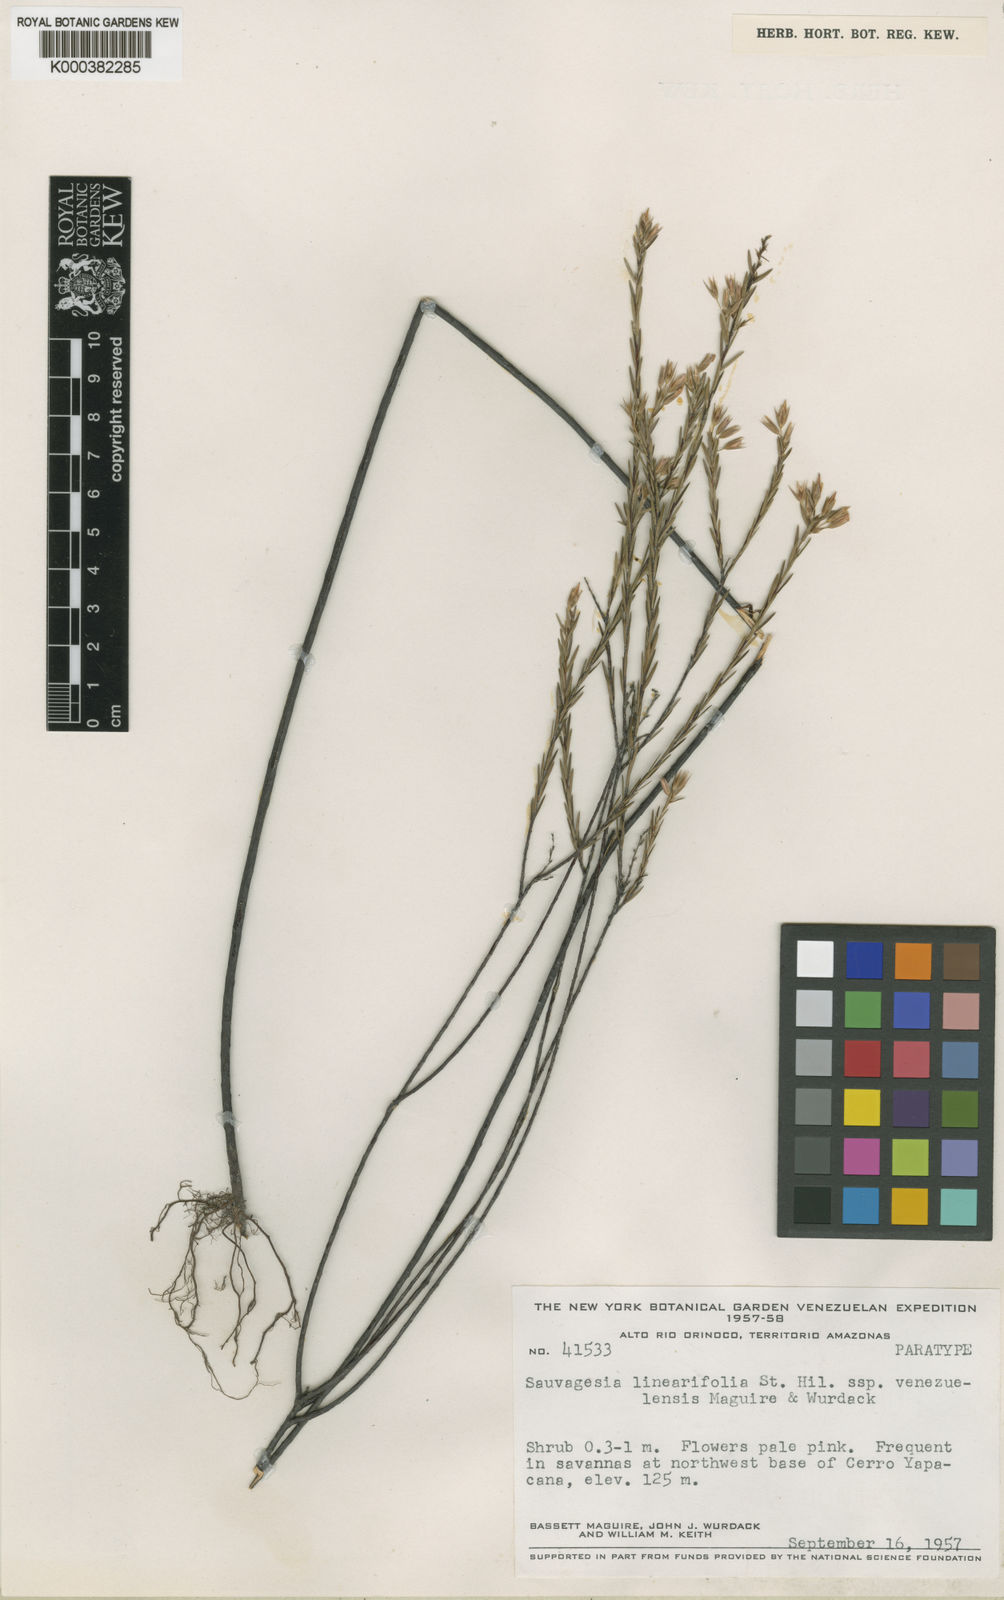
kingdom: Plantae
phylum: Tracheophyta
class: Magnoliopsida
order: Malpighiales
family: Ochnaceae
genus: Sauvagesia
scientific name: Sauvagesia linearifolia
